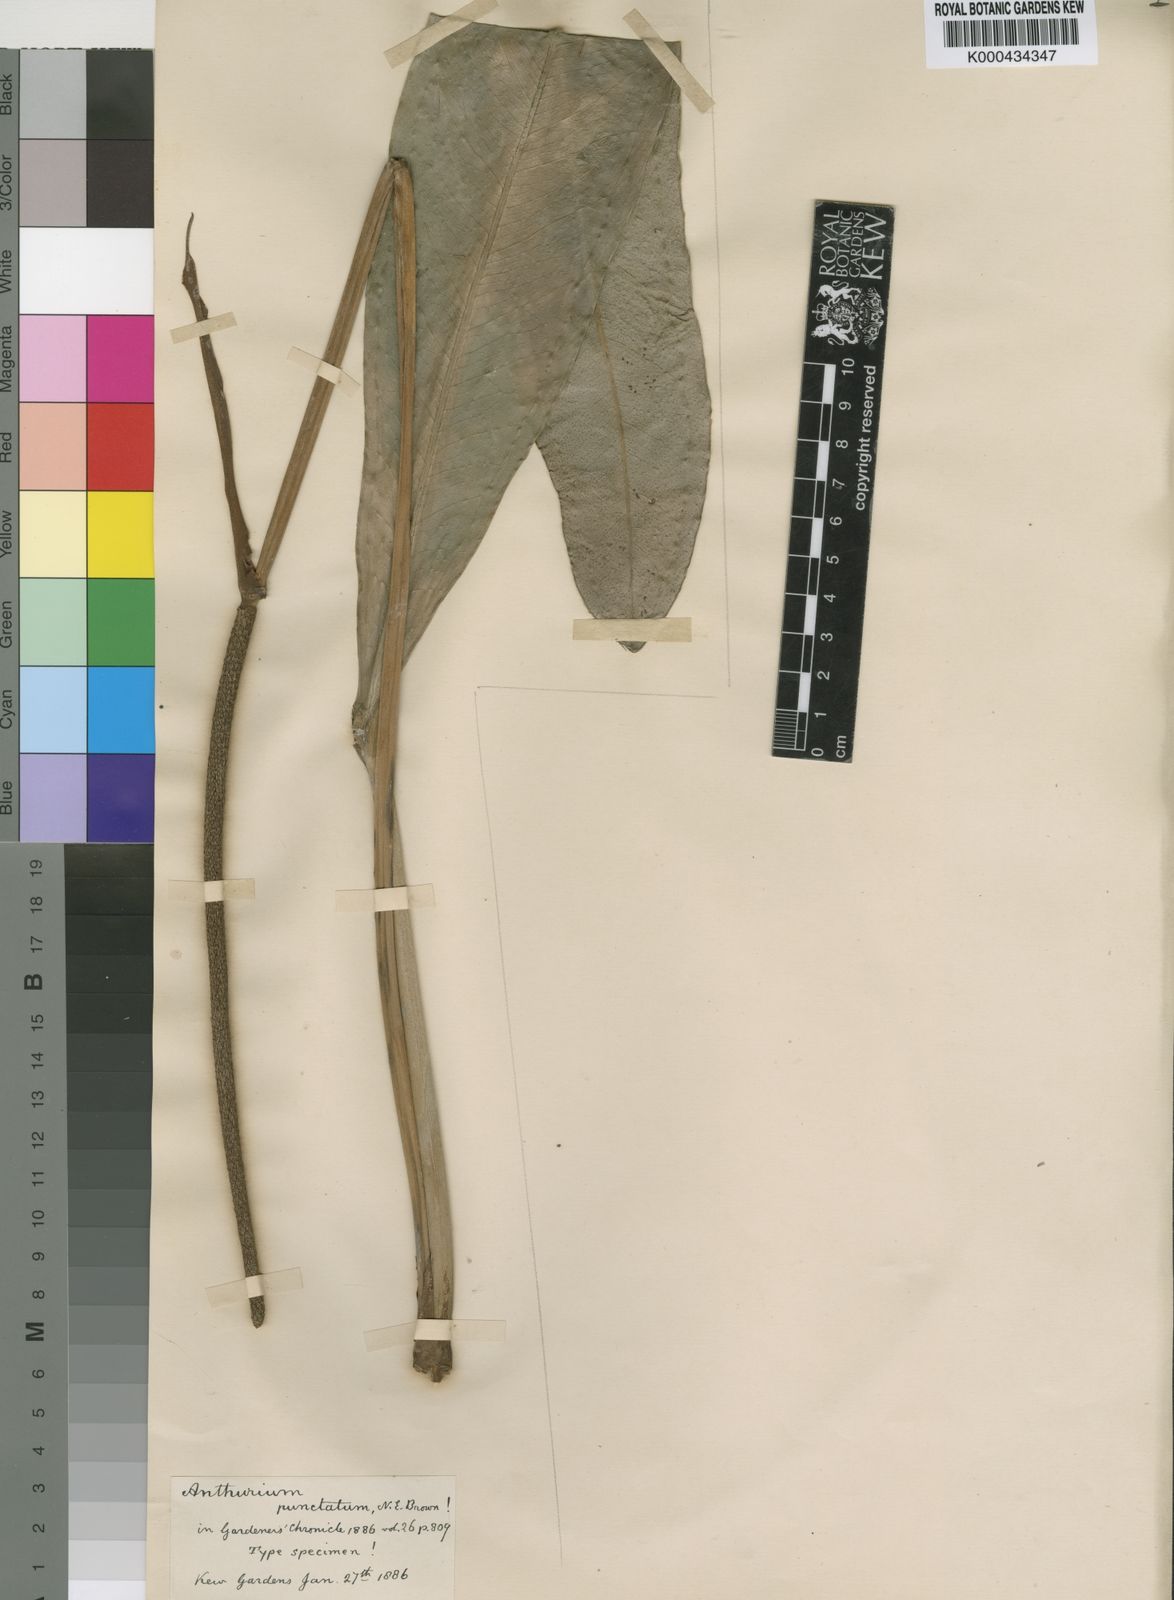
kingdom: Plantae
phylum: Tracheophyta
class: Liliopsida
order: Alismatales
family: Araceae
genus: Anthurium
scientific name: Anthurium pohlianum
